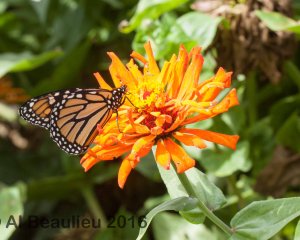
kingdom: Animalia
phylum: Arthropoda
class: Insecta
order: Lepidoptera
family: Nymphalidae
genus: Danaus
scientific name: Danaus plexippus
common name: Monarch
